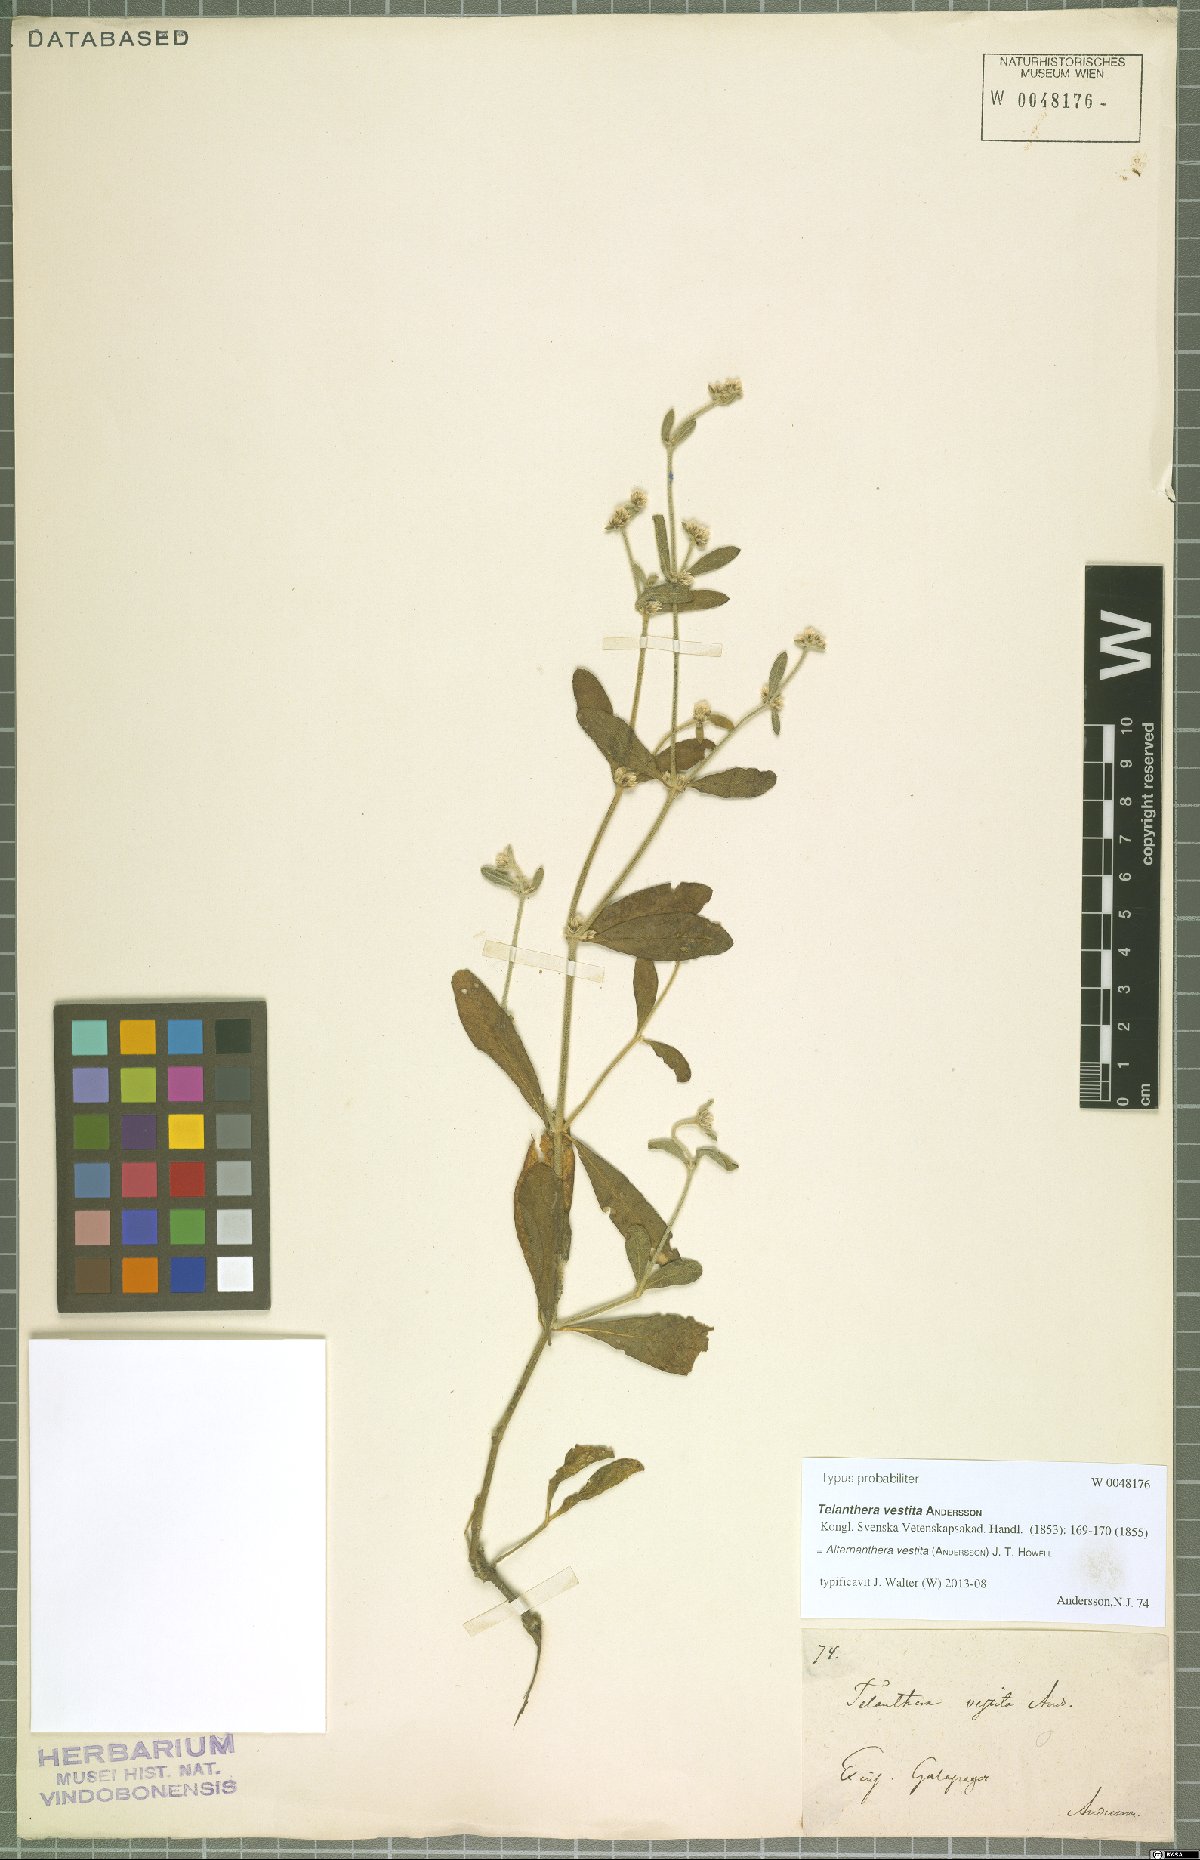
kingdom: Plantae
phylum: Tracheophyta
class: Magnoliopsida
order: Caryophyllales
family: Amaranthaceae
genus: Alternanthera
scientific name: Alternanthera vestita
